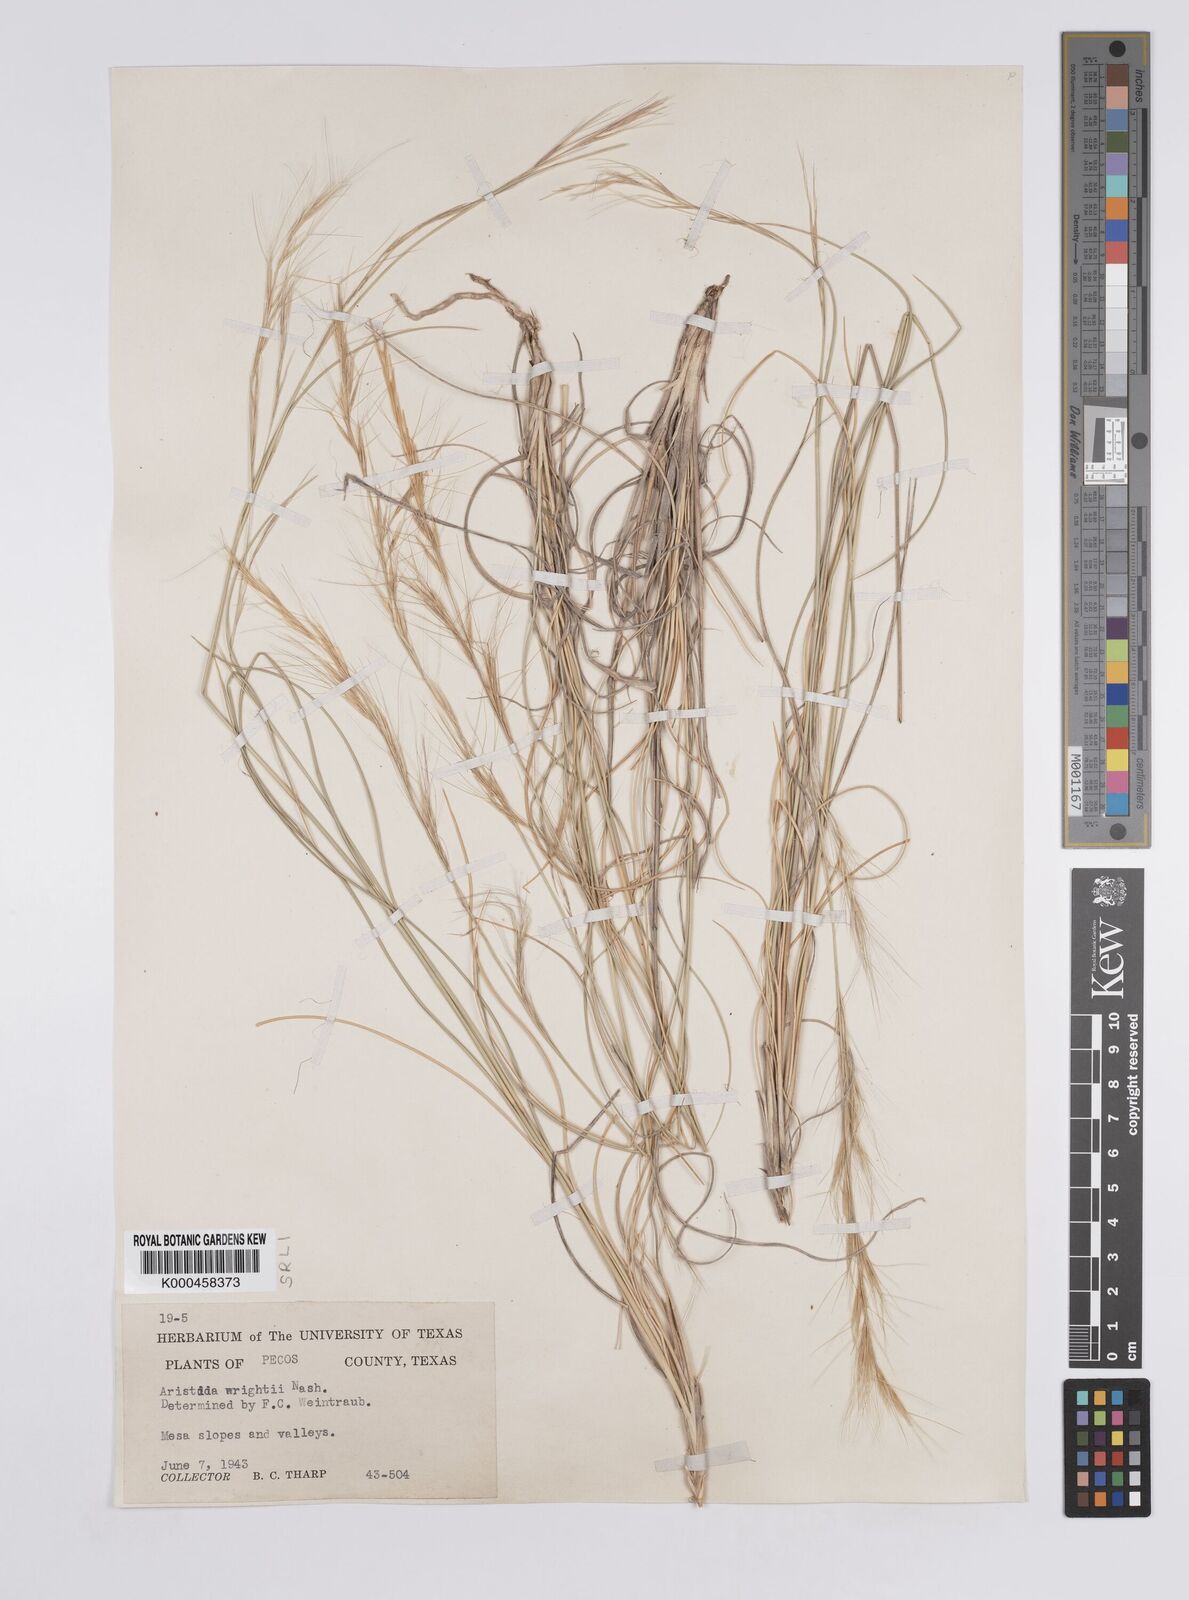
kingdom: Plantae
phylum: Tracheophyta
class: Liliopsida
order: Poales
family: Poaceae
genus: Aristida
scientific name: Aristida wrightii
